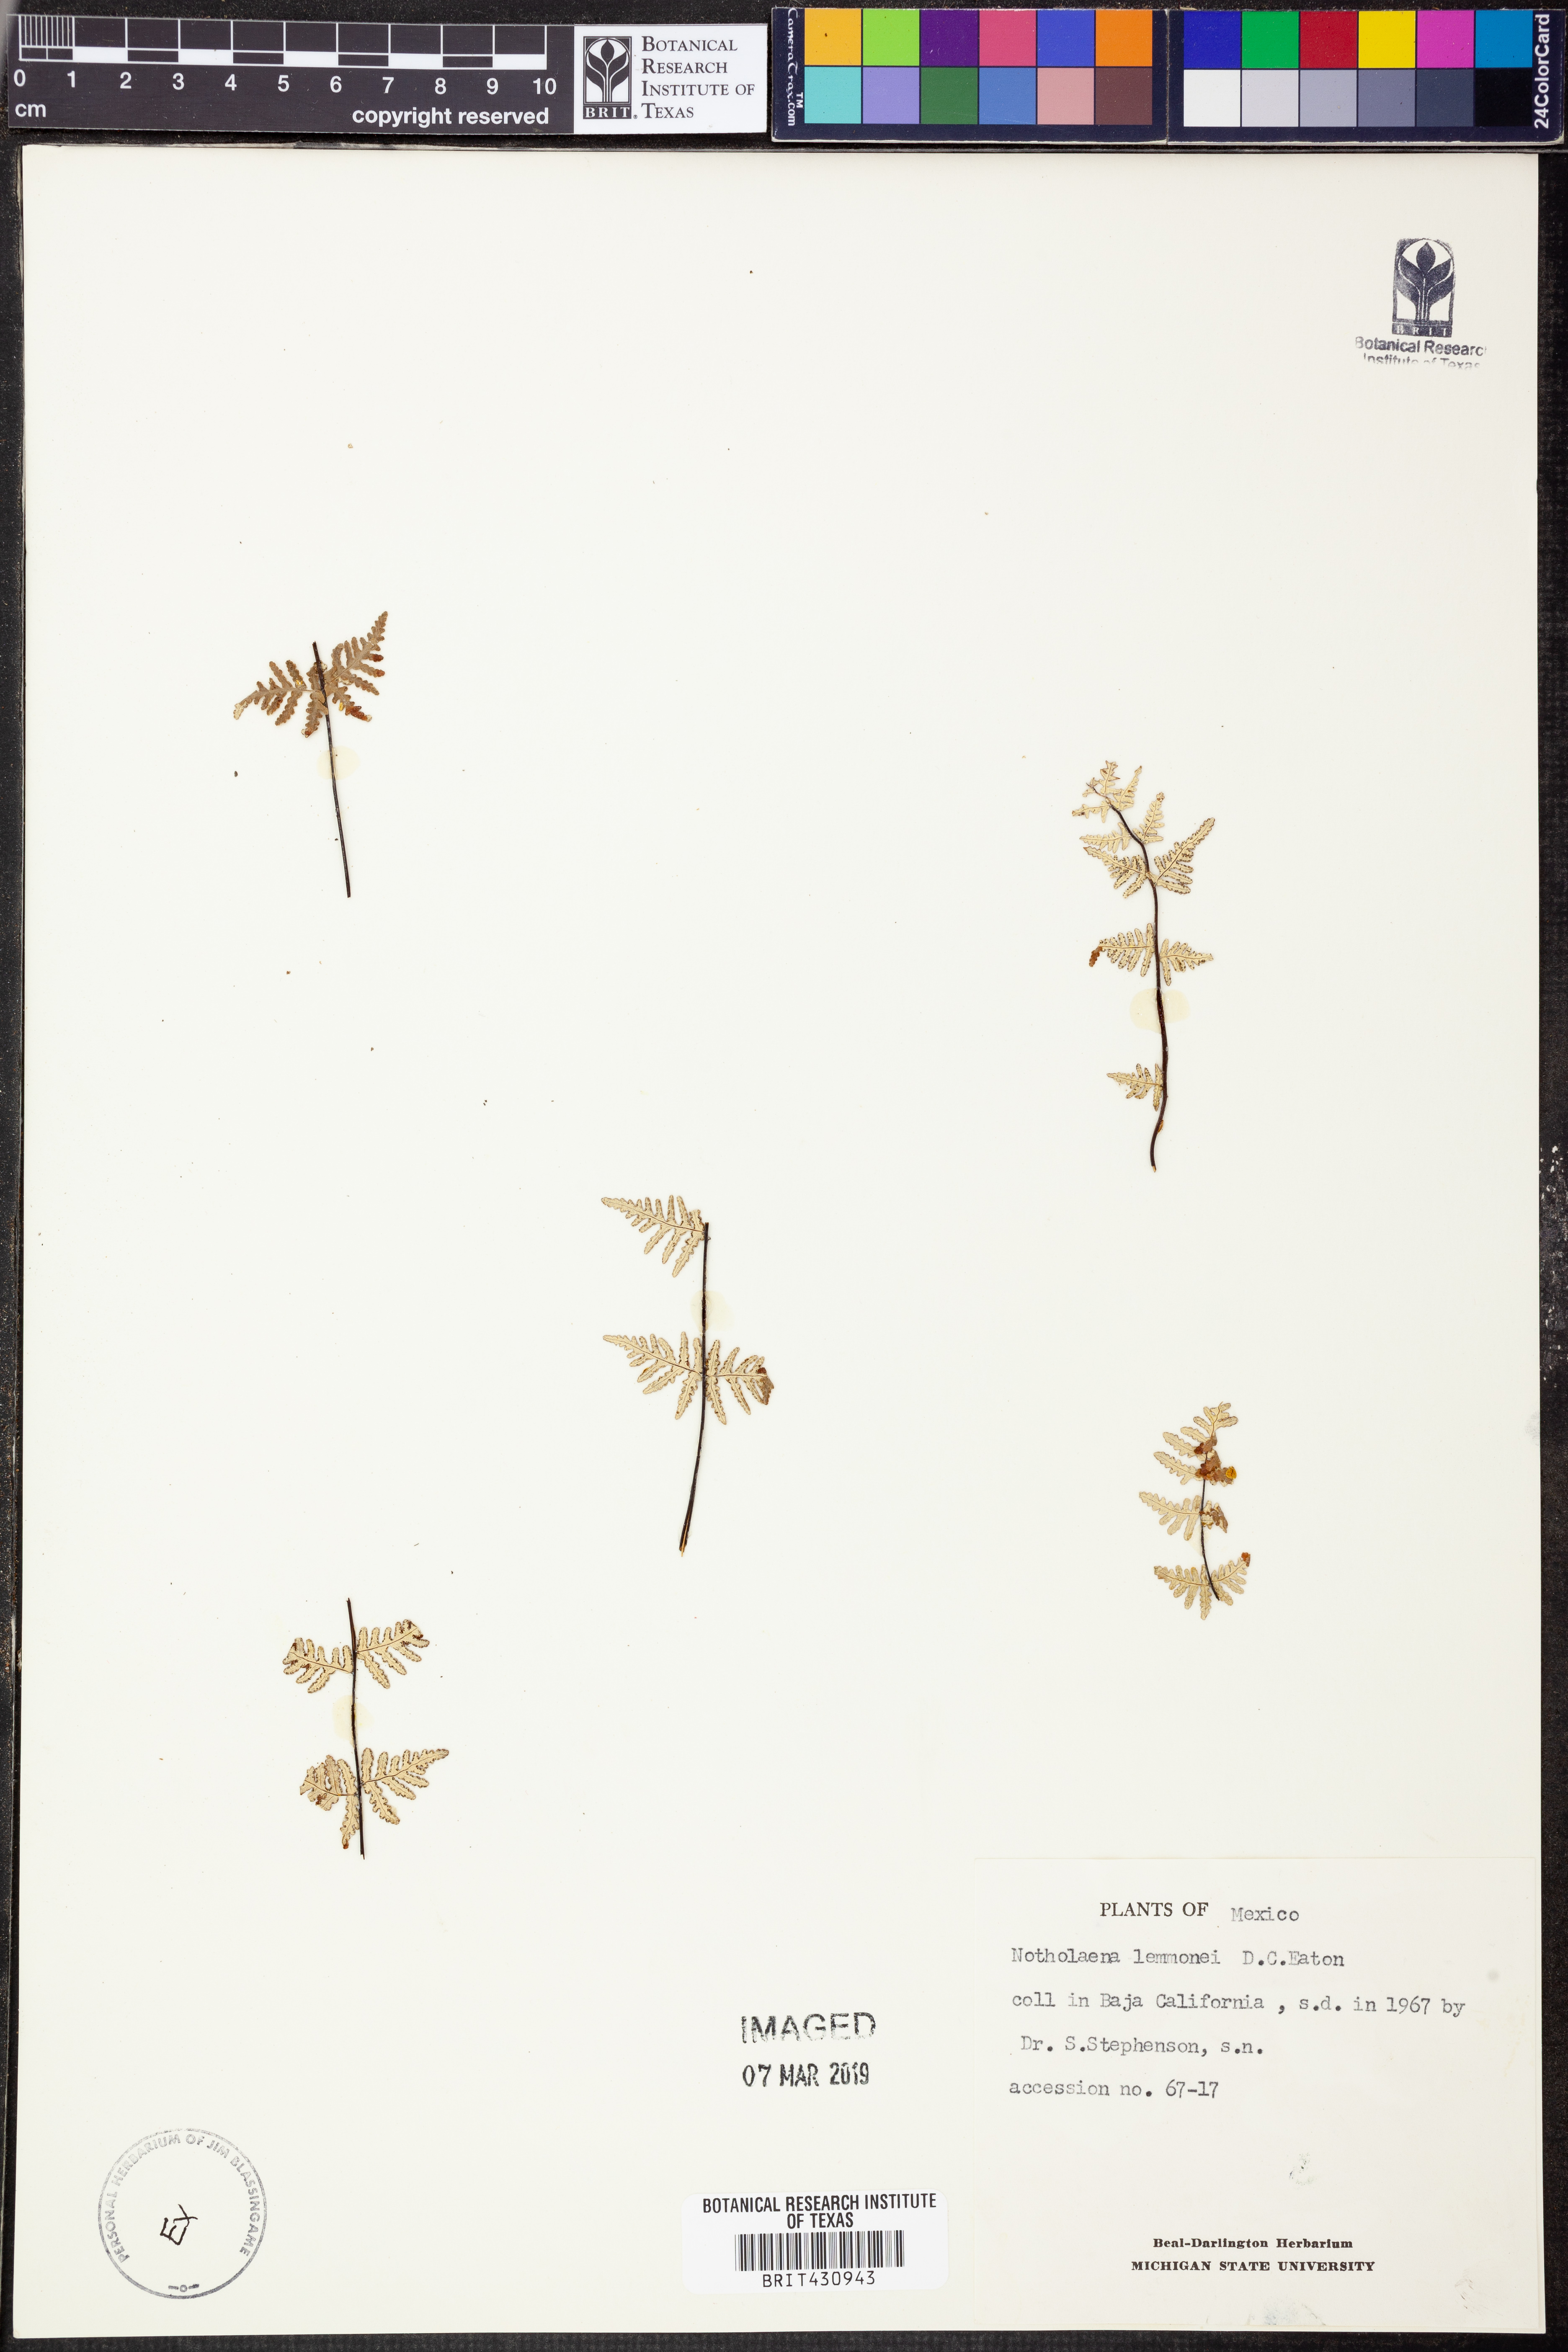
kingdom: Plantae
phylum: Tracheophyta
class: Polypodiopsida
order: Polypodiales
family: Pteridaceae
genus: Notholaena
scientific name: Notholaena lemmonii
